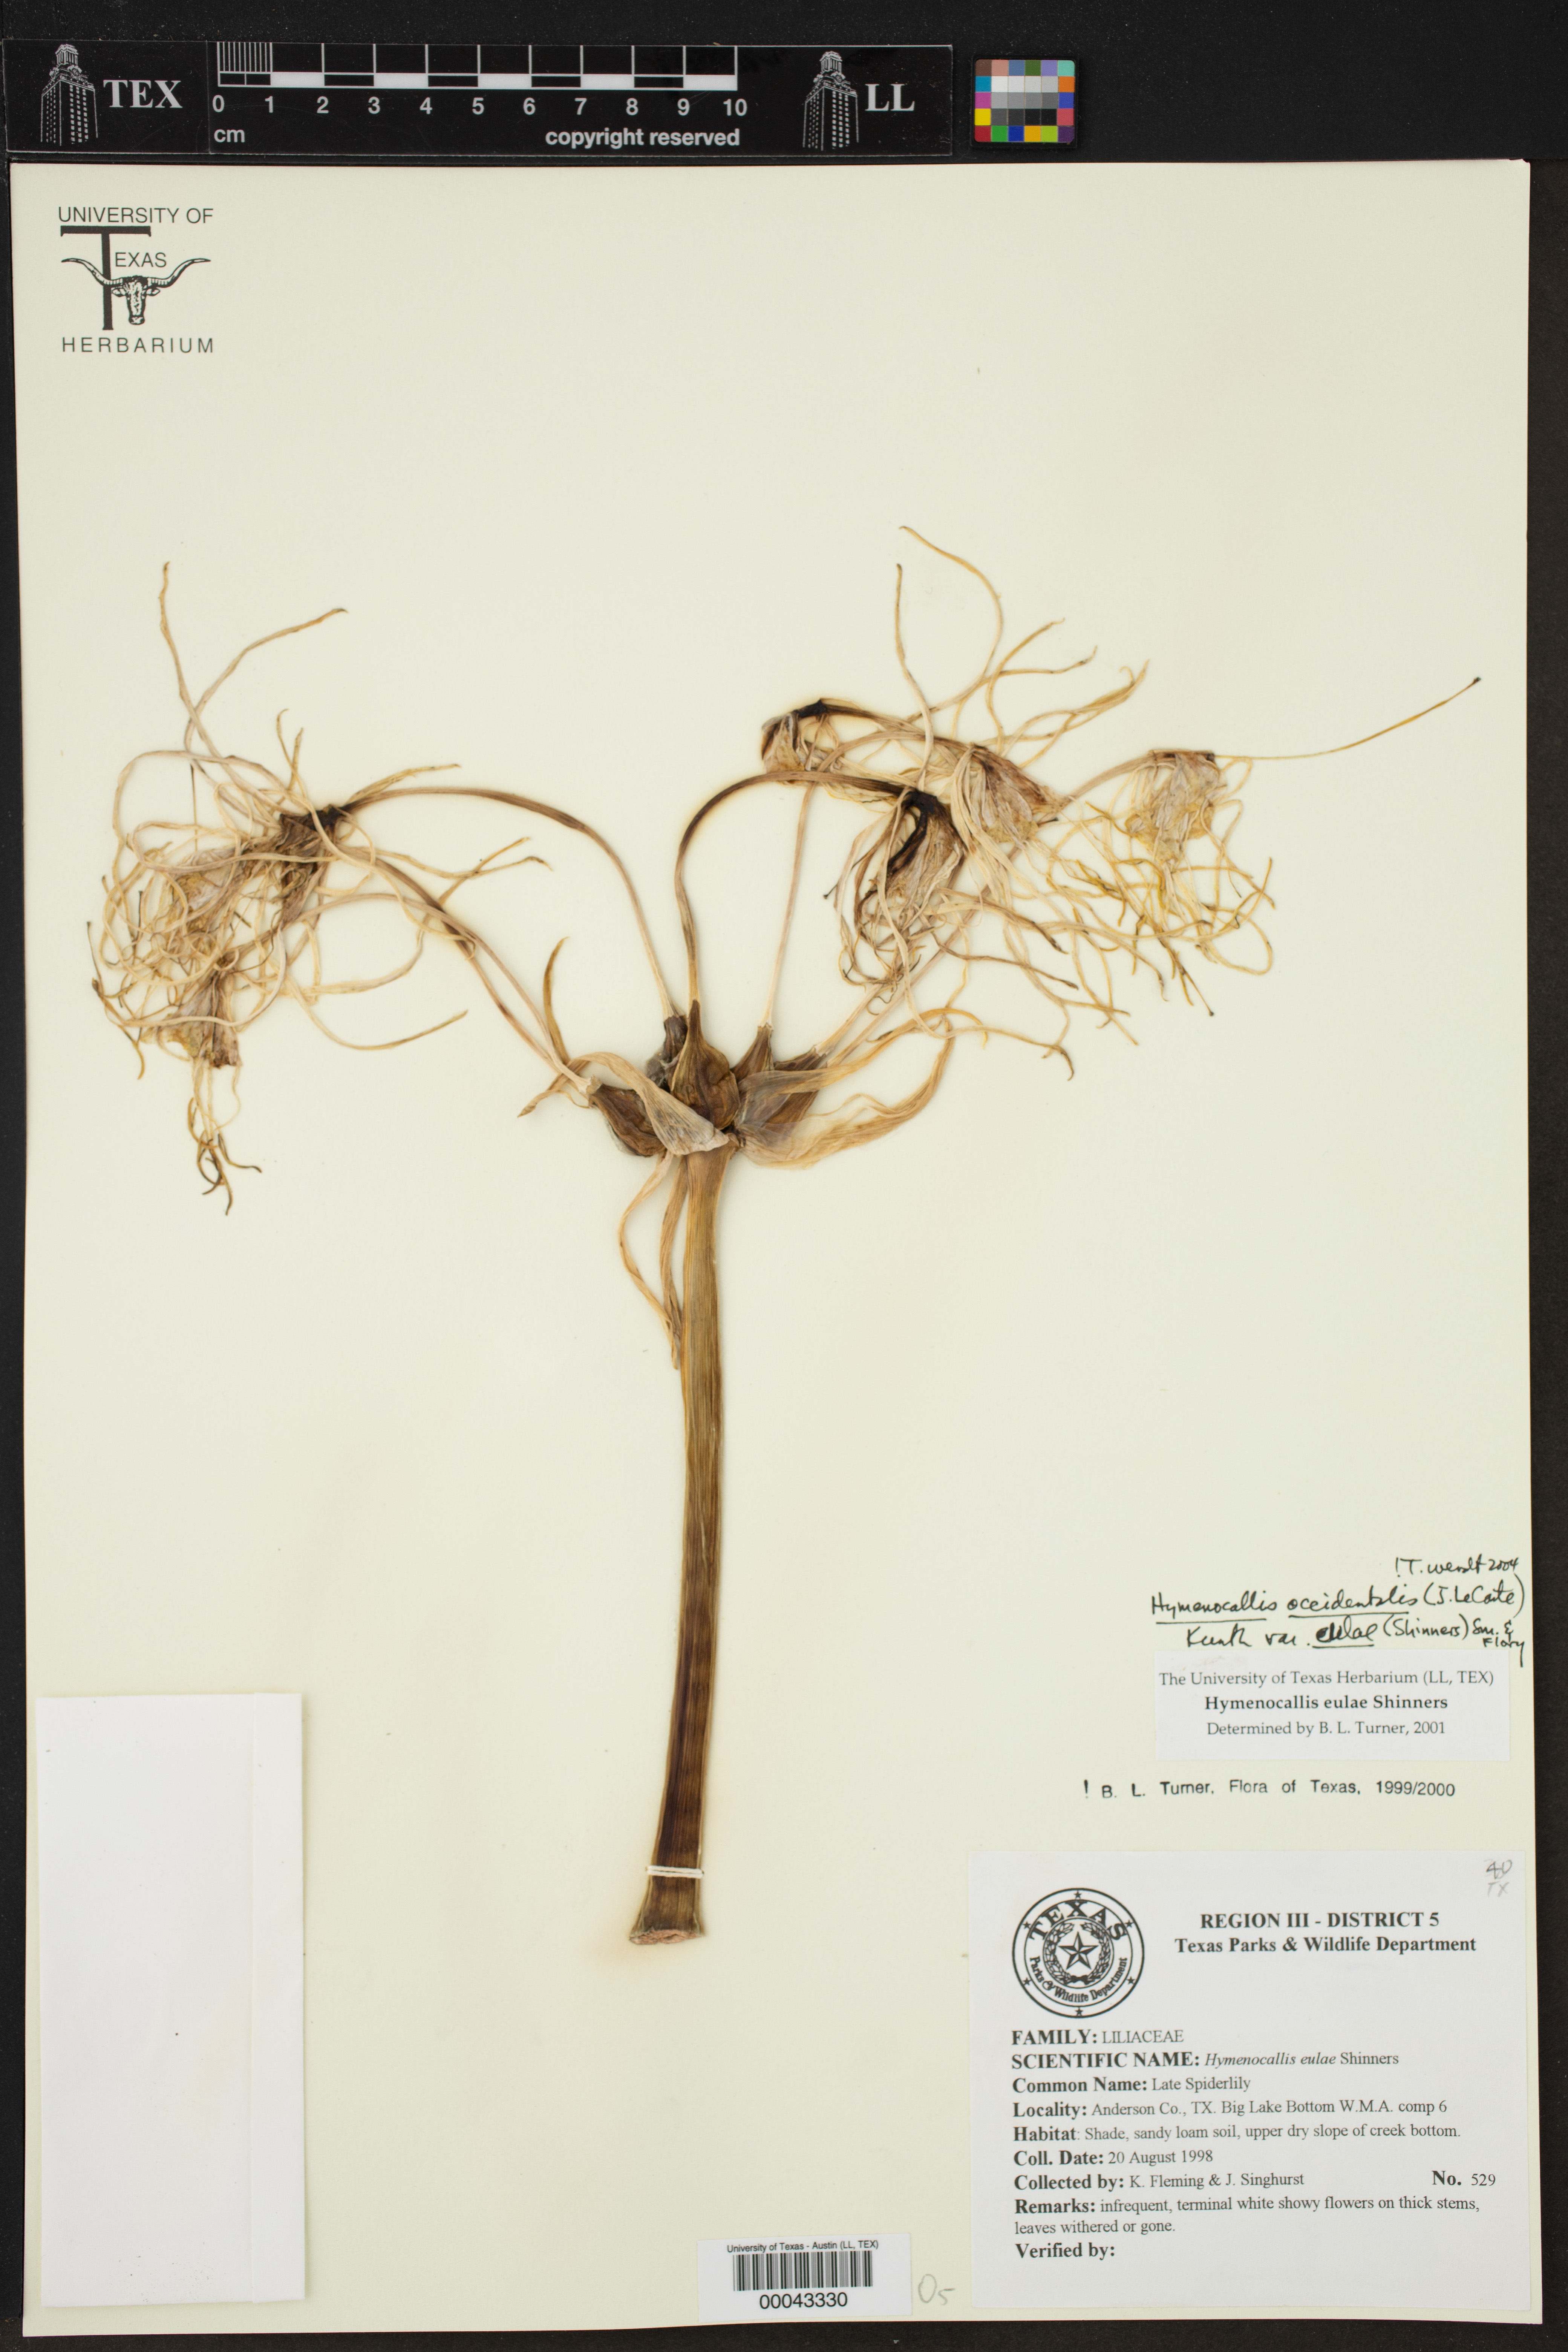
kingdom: Plantae
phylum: Tracheophyta
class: Liliopsida
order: Asparagales
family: Amaryllidaceae
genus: Hymenocallis
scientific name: Hymenocallis occidentalis
